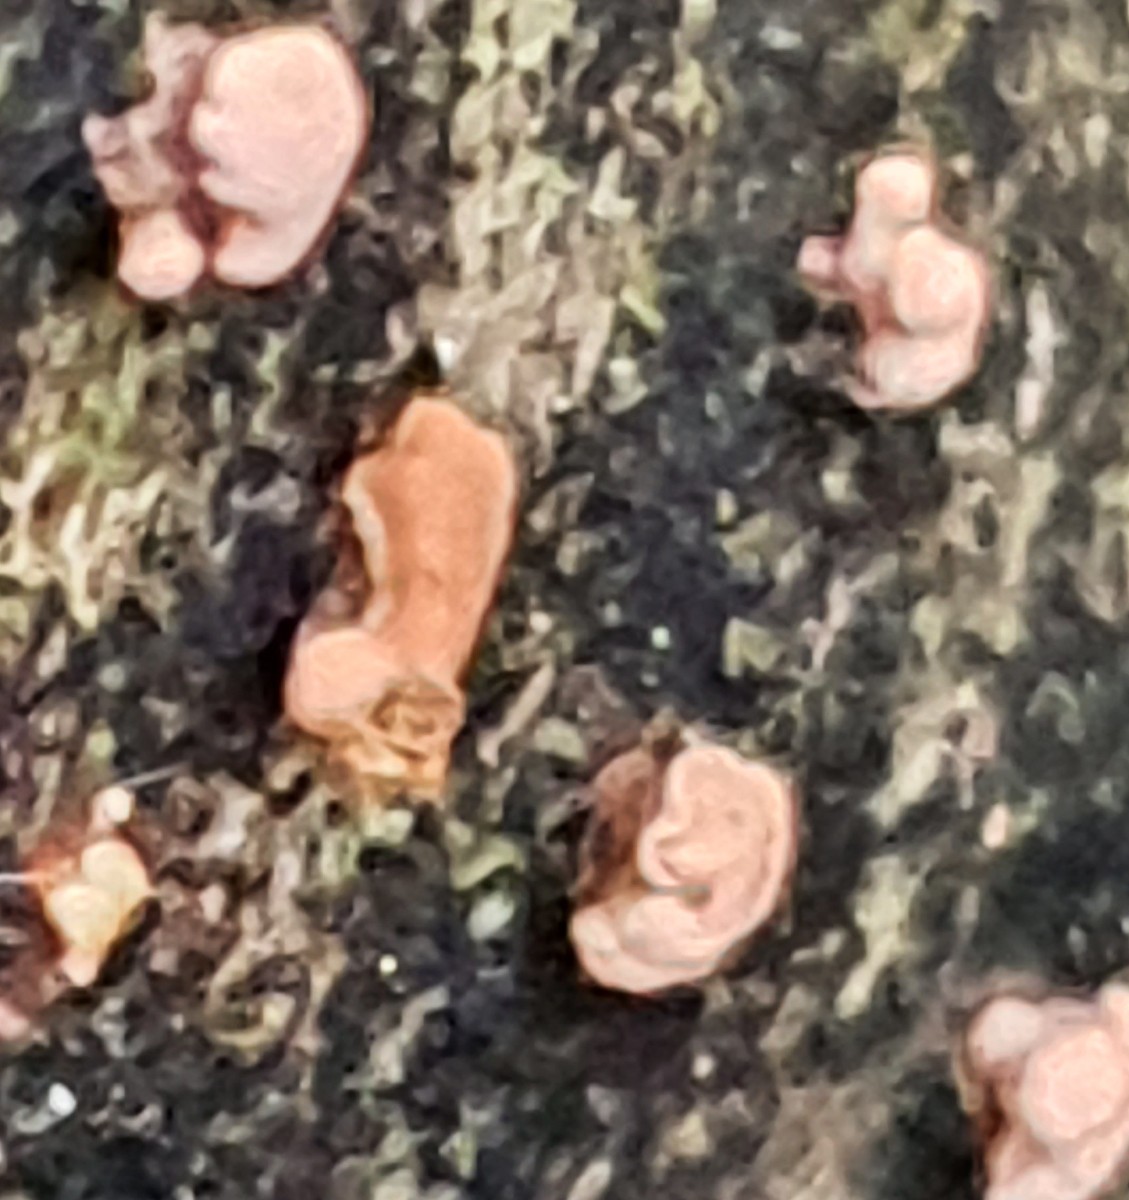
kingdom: Fungi
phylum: Ascomycota
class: Sordariomycetes
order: Hypocreales
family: Nectriaceae
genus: Nectria
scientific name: Nectria cinnabarina
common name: almindelig cinnobersvamp
